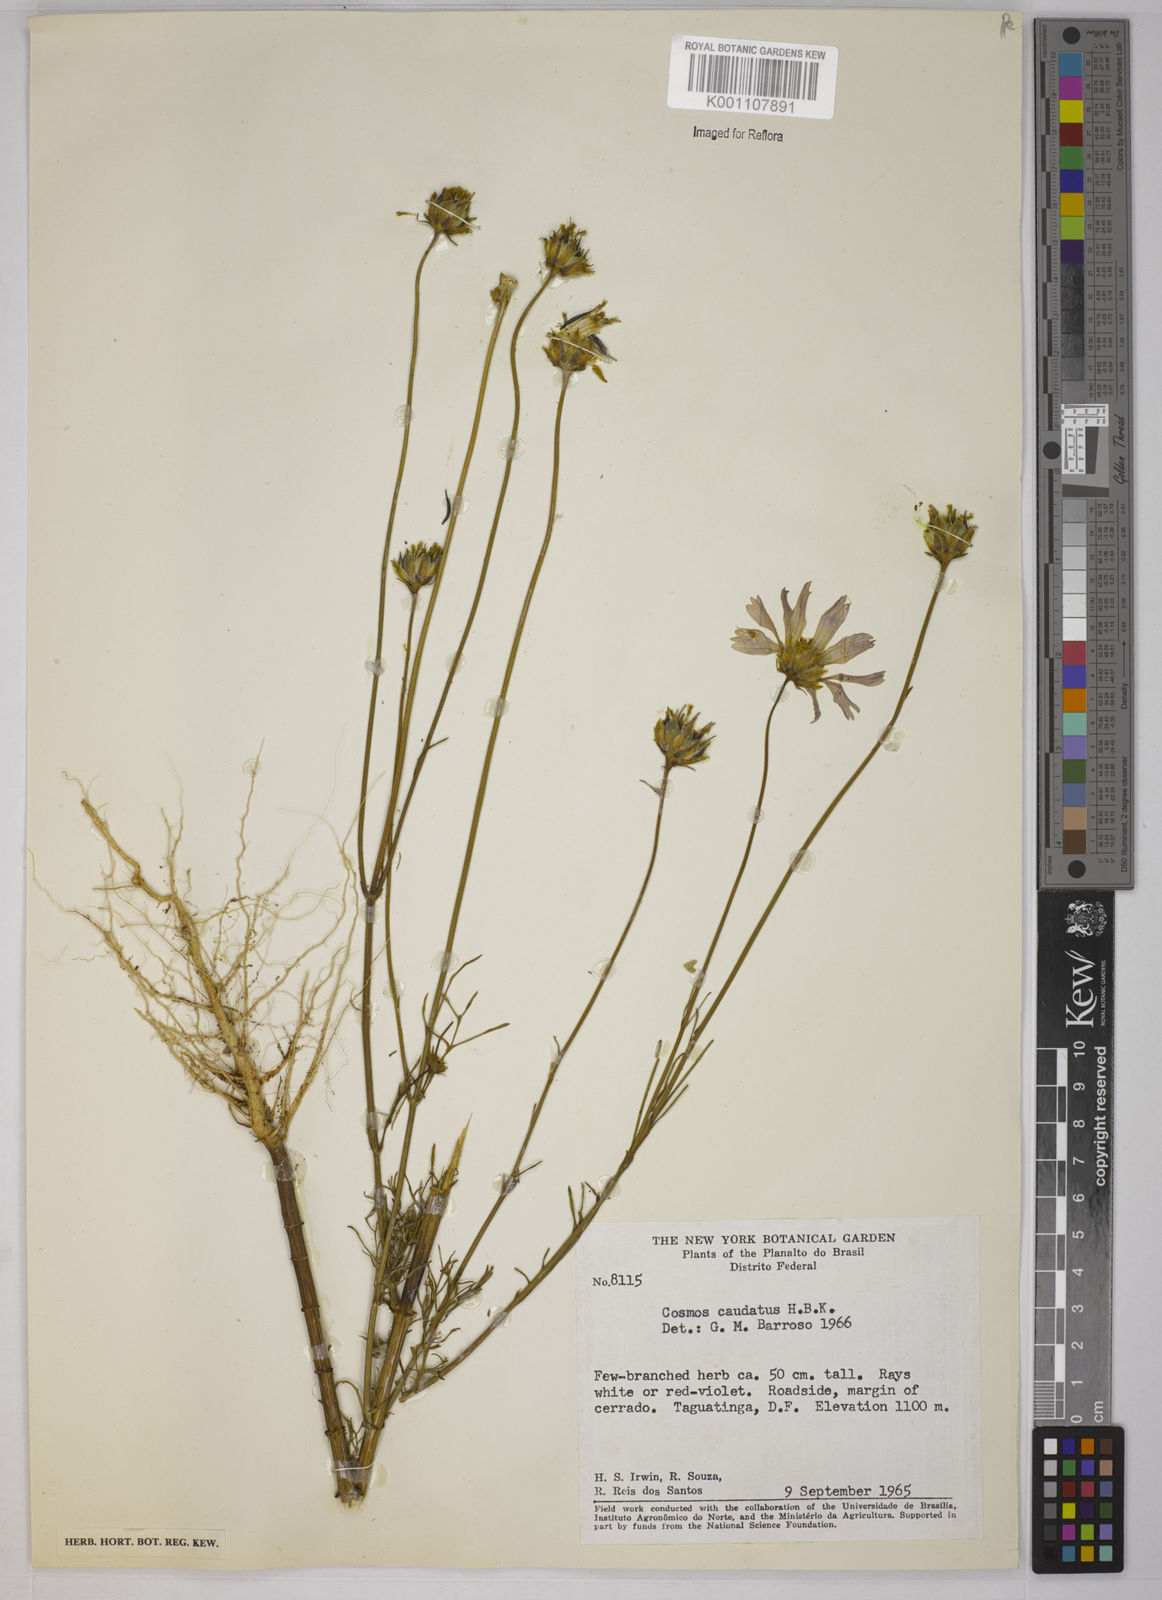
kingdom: Plantae
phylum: Tracheophyta
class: Magnoliopsida
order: Asterales
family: Asteraceae
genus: Cosmos
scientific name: Cosmos caudatus
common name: Wild cosmos
